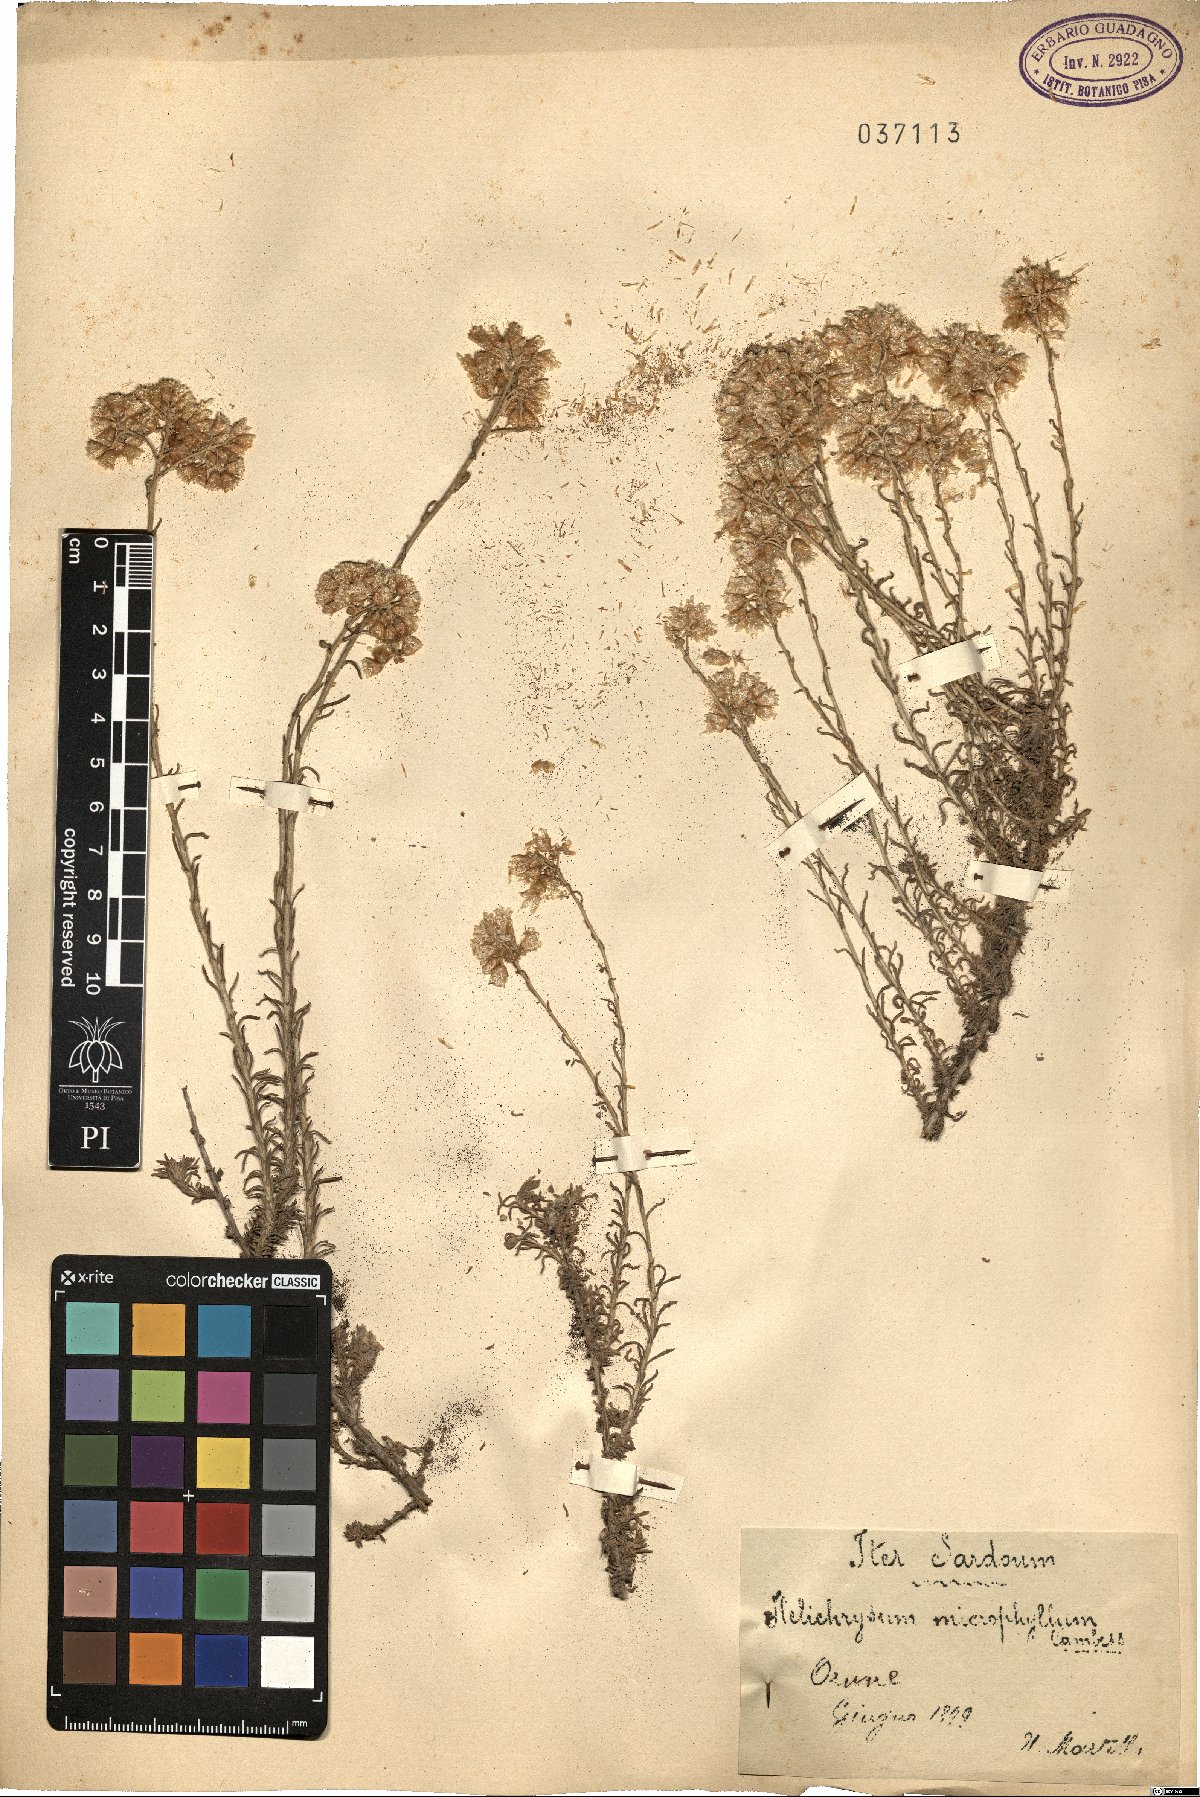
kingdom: Plantae
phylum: Tracheophyta
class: Magnoliopsida
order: Asterales
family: Asteraceae
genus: Helichrysum
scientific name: Helichrysum italicum
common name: Curryplant
